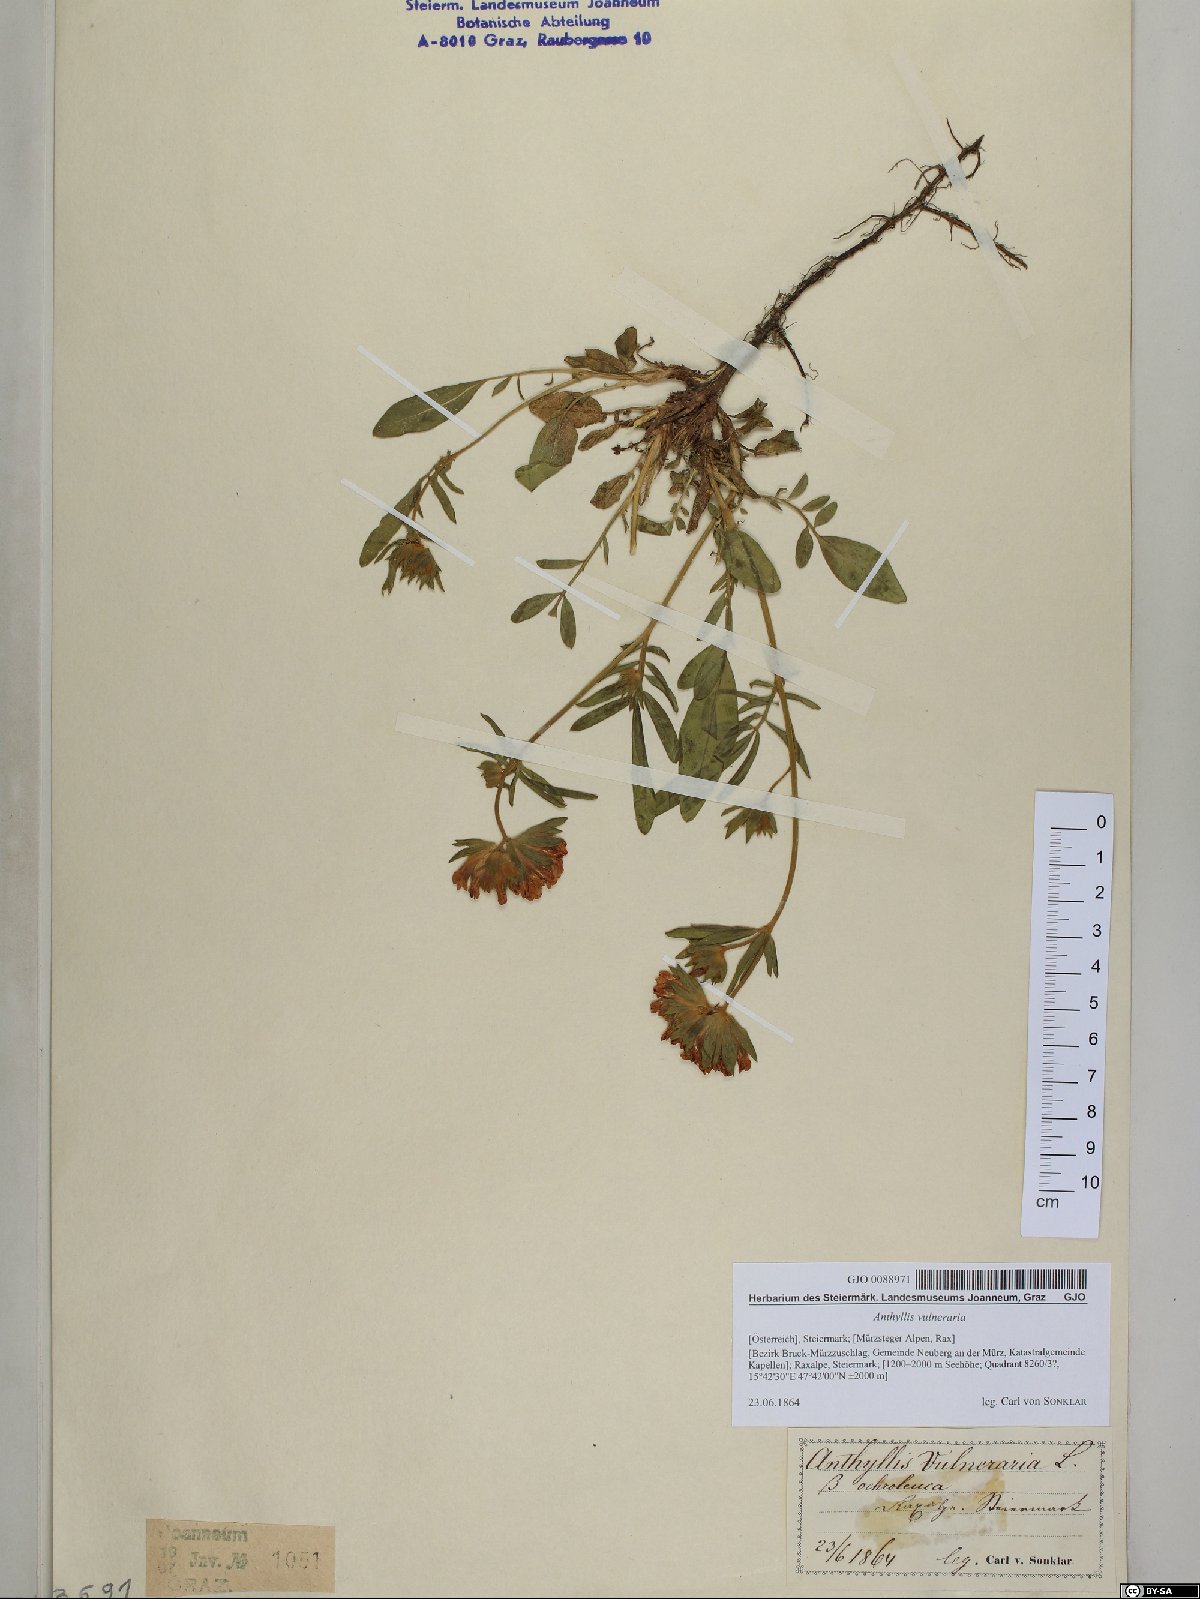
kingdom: Plantae
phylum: Tracheophyta
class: Magnoliopsida
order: Fabales
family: Fabaceae
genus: Anthyllis
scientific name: Anthyllis vulneraria
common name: Kidney vetch
